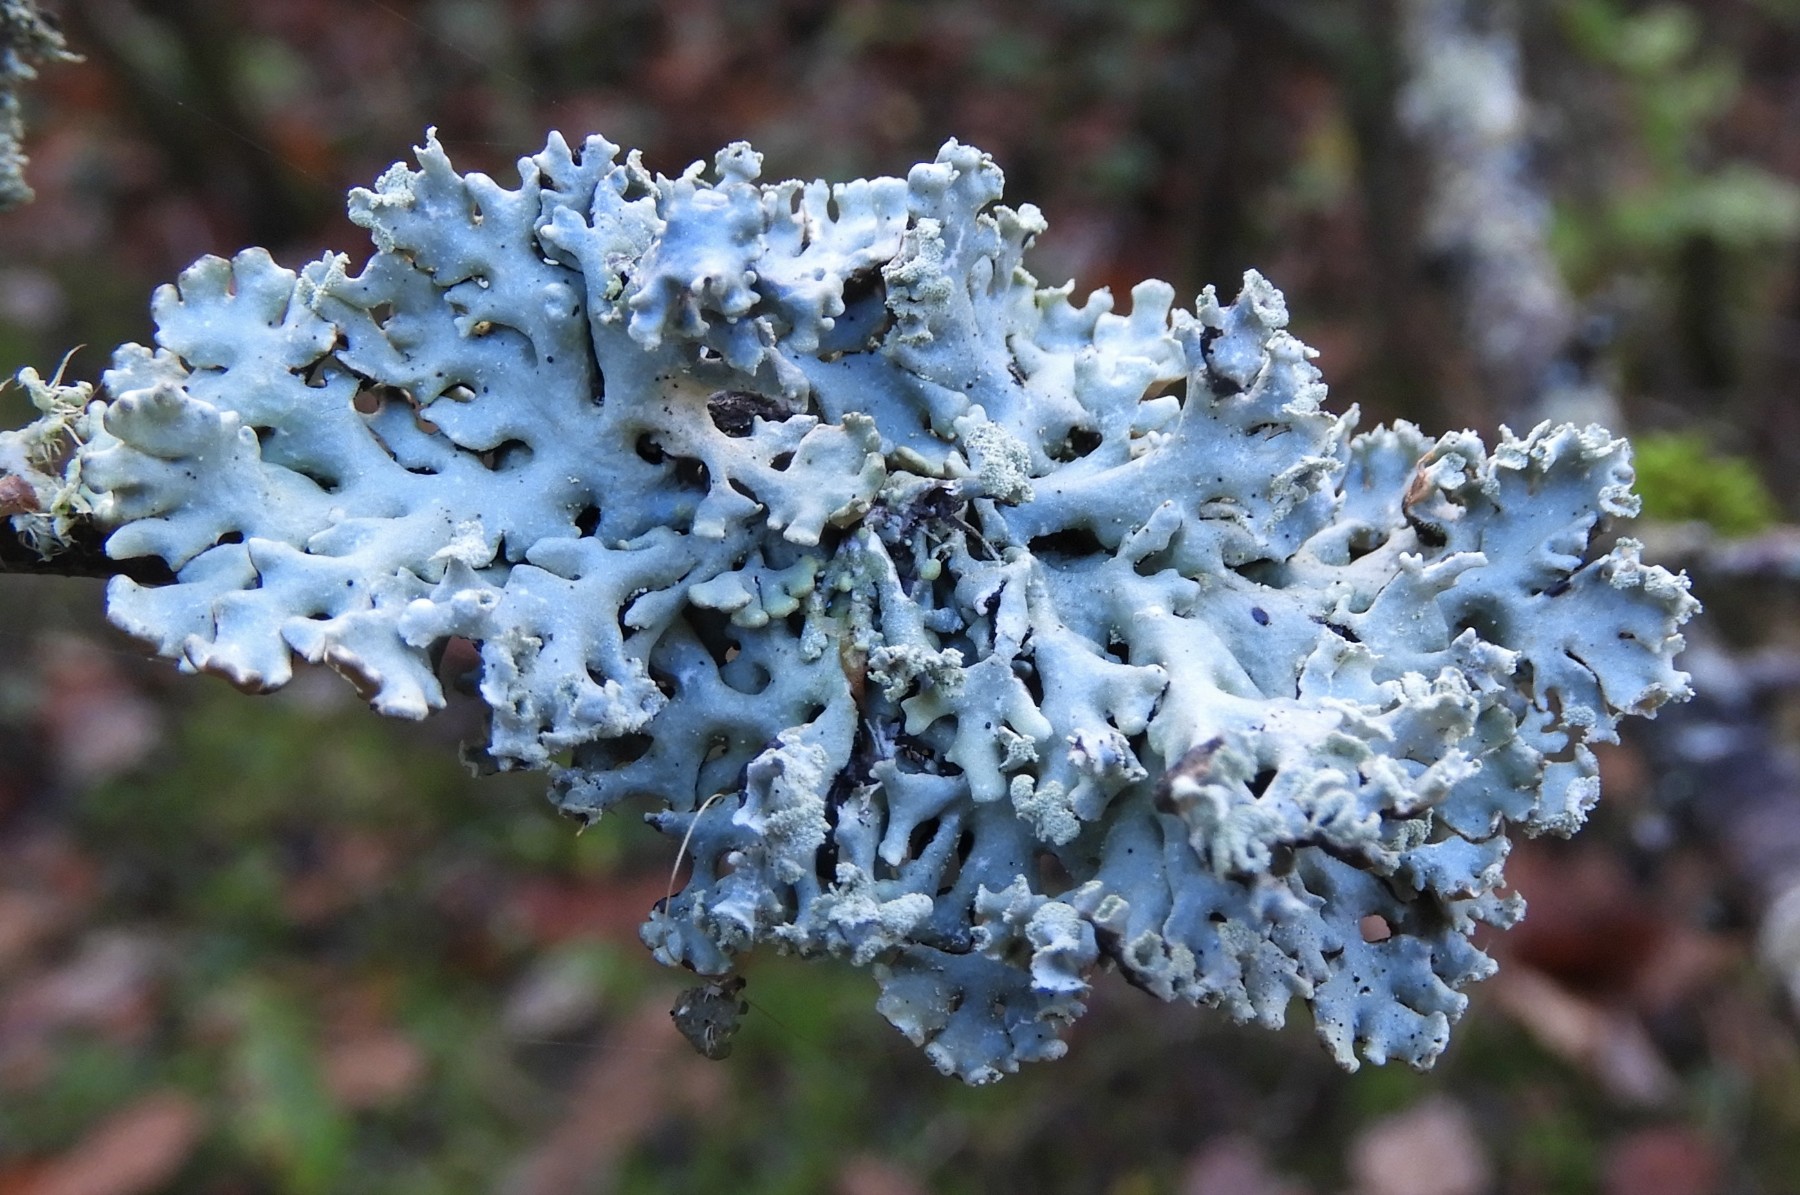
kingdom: Fungi
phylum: Ascomycota
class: Lecanoromycetes
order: Lecanorales
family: Parmeliaceae
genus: Hypogymnia
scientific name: Hypogymnia physodes
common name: almindelig kvistlav
